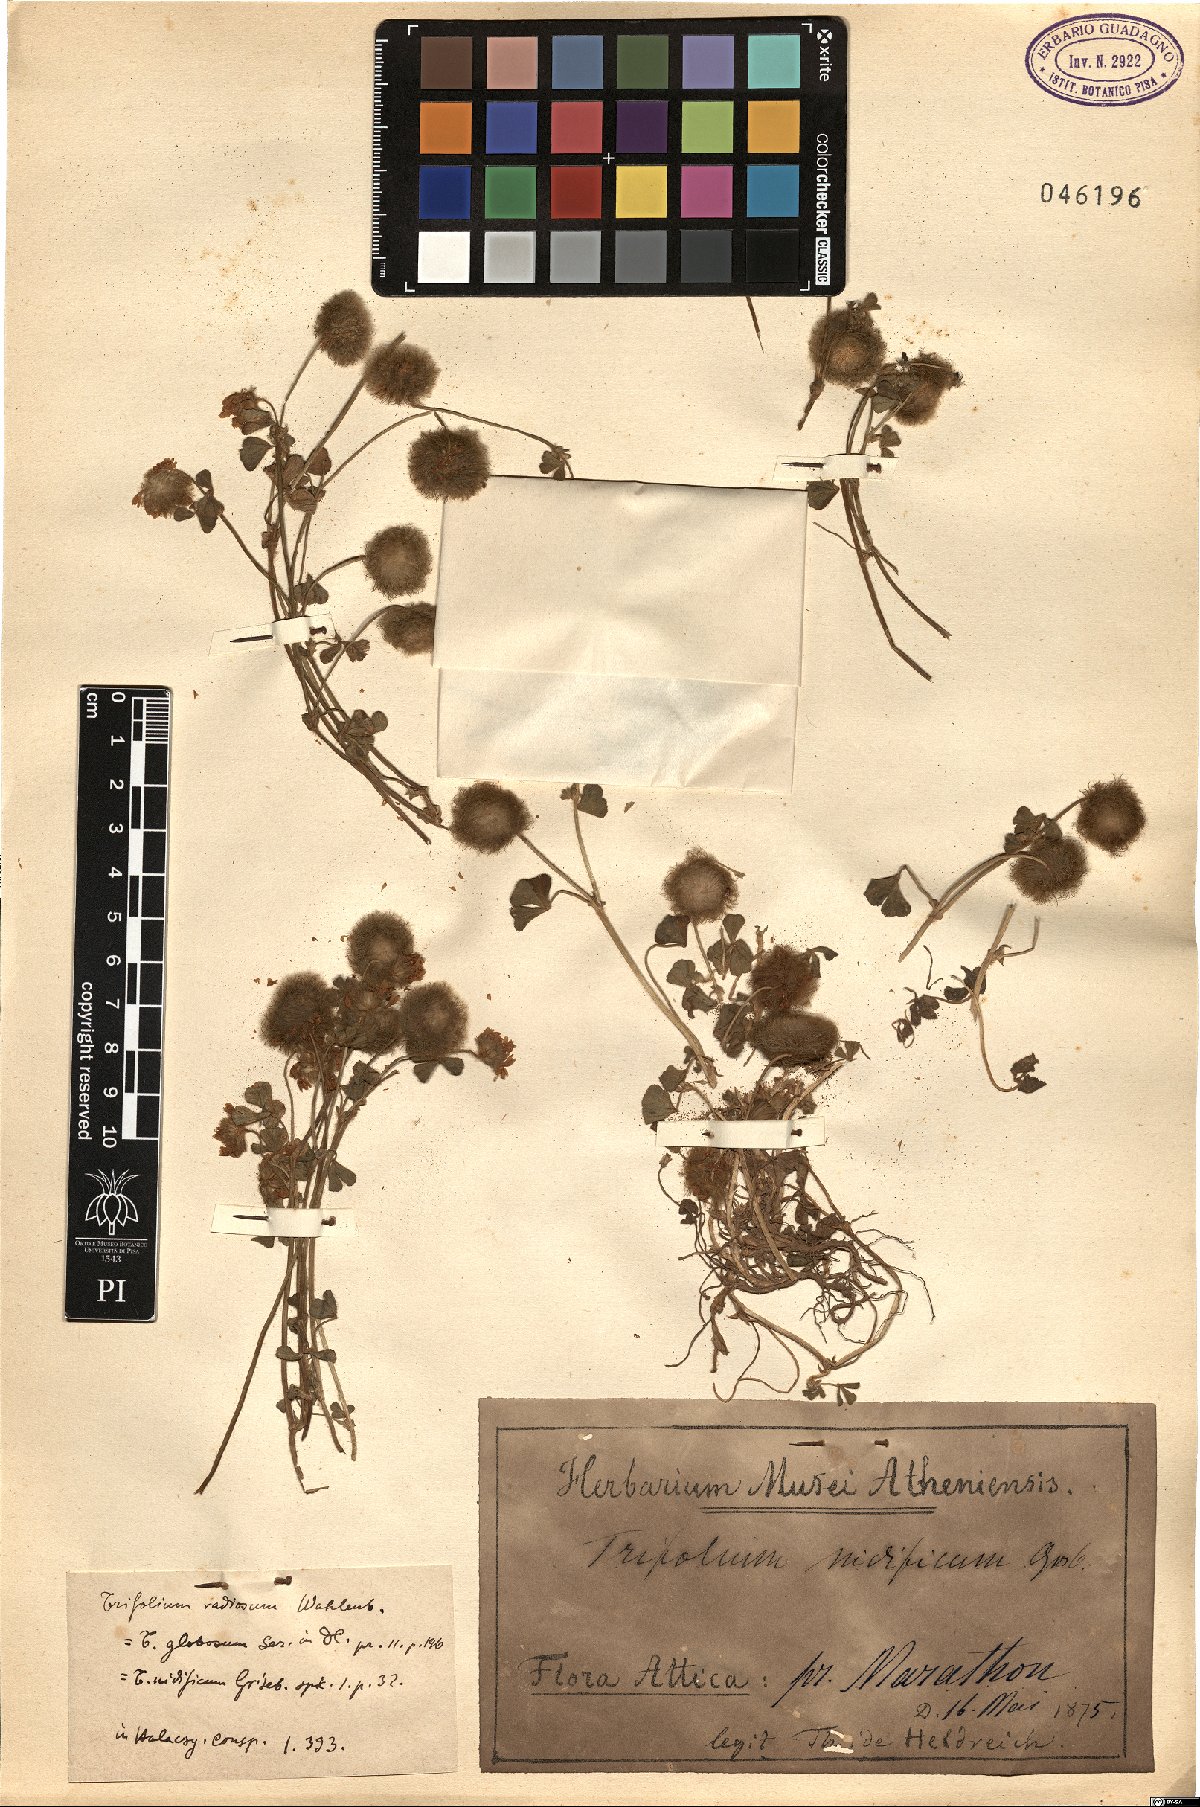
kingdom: Plantae
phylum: Tracheophyta
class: Magnoliopsida
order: Fabales
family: Fabaceae
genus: Trifolium
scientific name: Trifolium globosum
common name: Round-head clover
